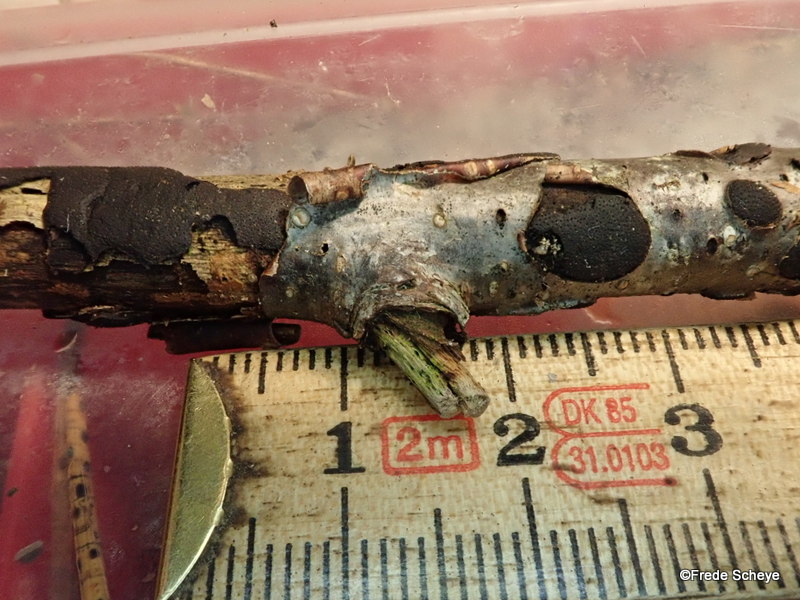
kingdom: Fungi
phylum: Ascomycota
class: Sordariomycetes
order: Xylariales
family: Diatrypaceae
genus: Diatrype
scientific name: Diatrype
